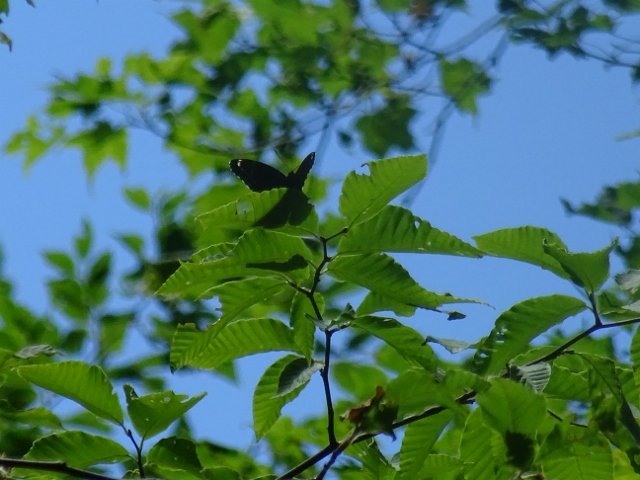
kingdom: Animalia
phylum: Arthropoda
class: Insecta
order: Lepidoptera
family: Nymphalidae
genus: Limenitis
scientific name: Limenitis astyanax
